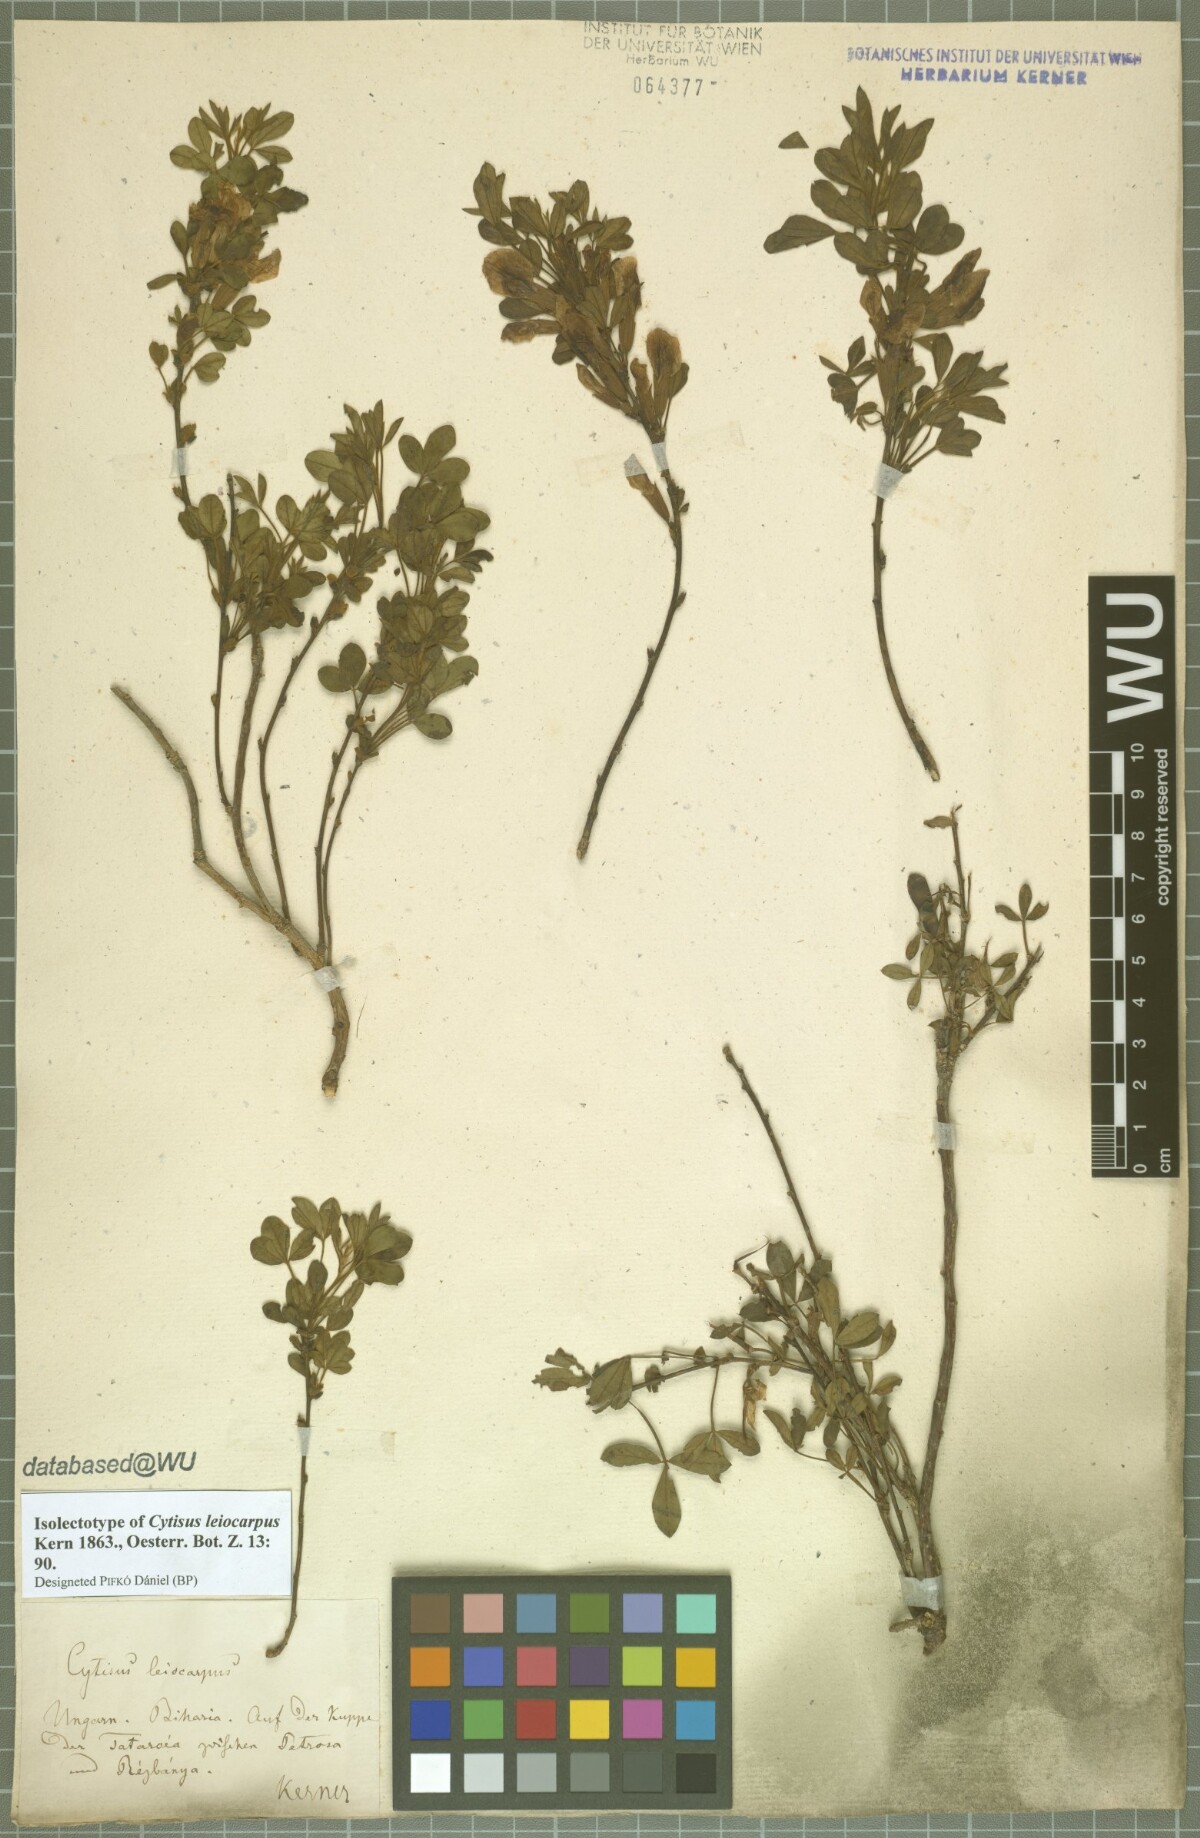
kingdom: Plantae
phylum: Tracheophyta
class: Magnoliopsida
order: Fabales
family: Fabaceae
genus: Chamaecytisus
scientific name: Chamaecytisus leiocarpus
